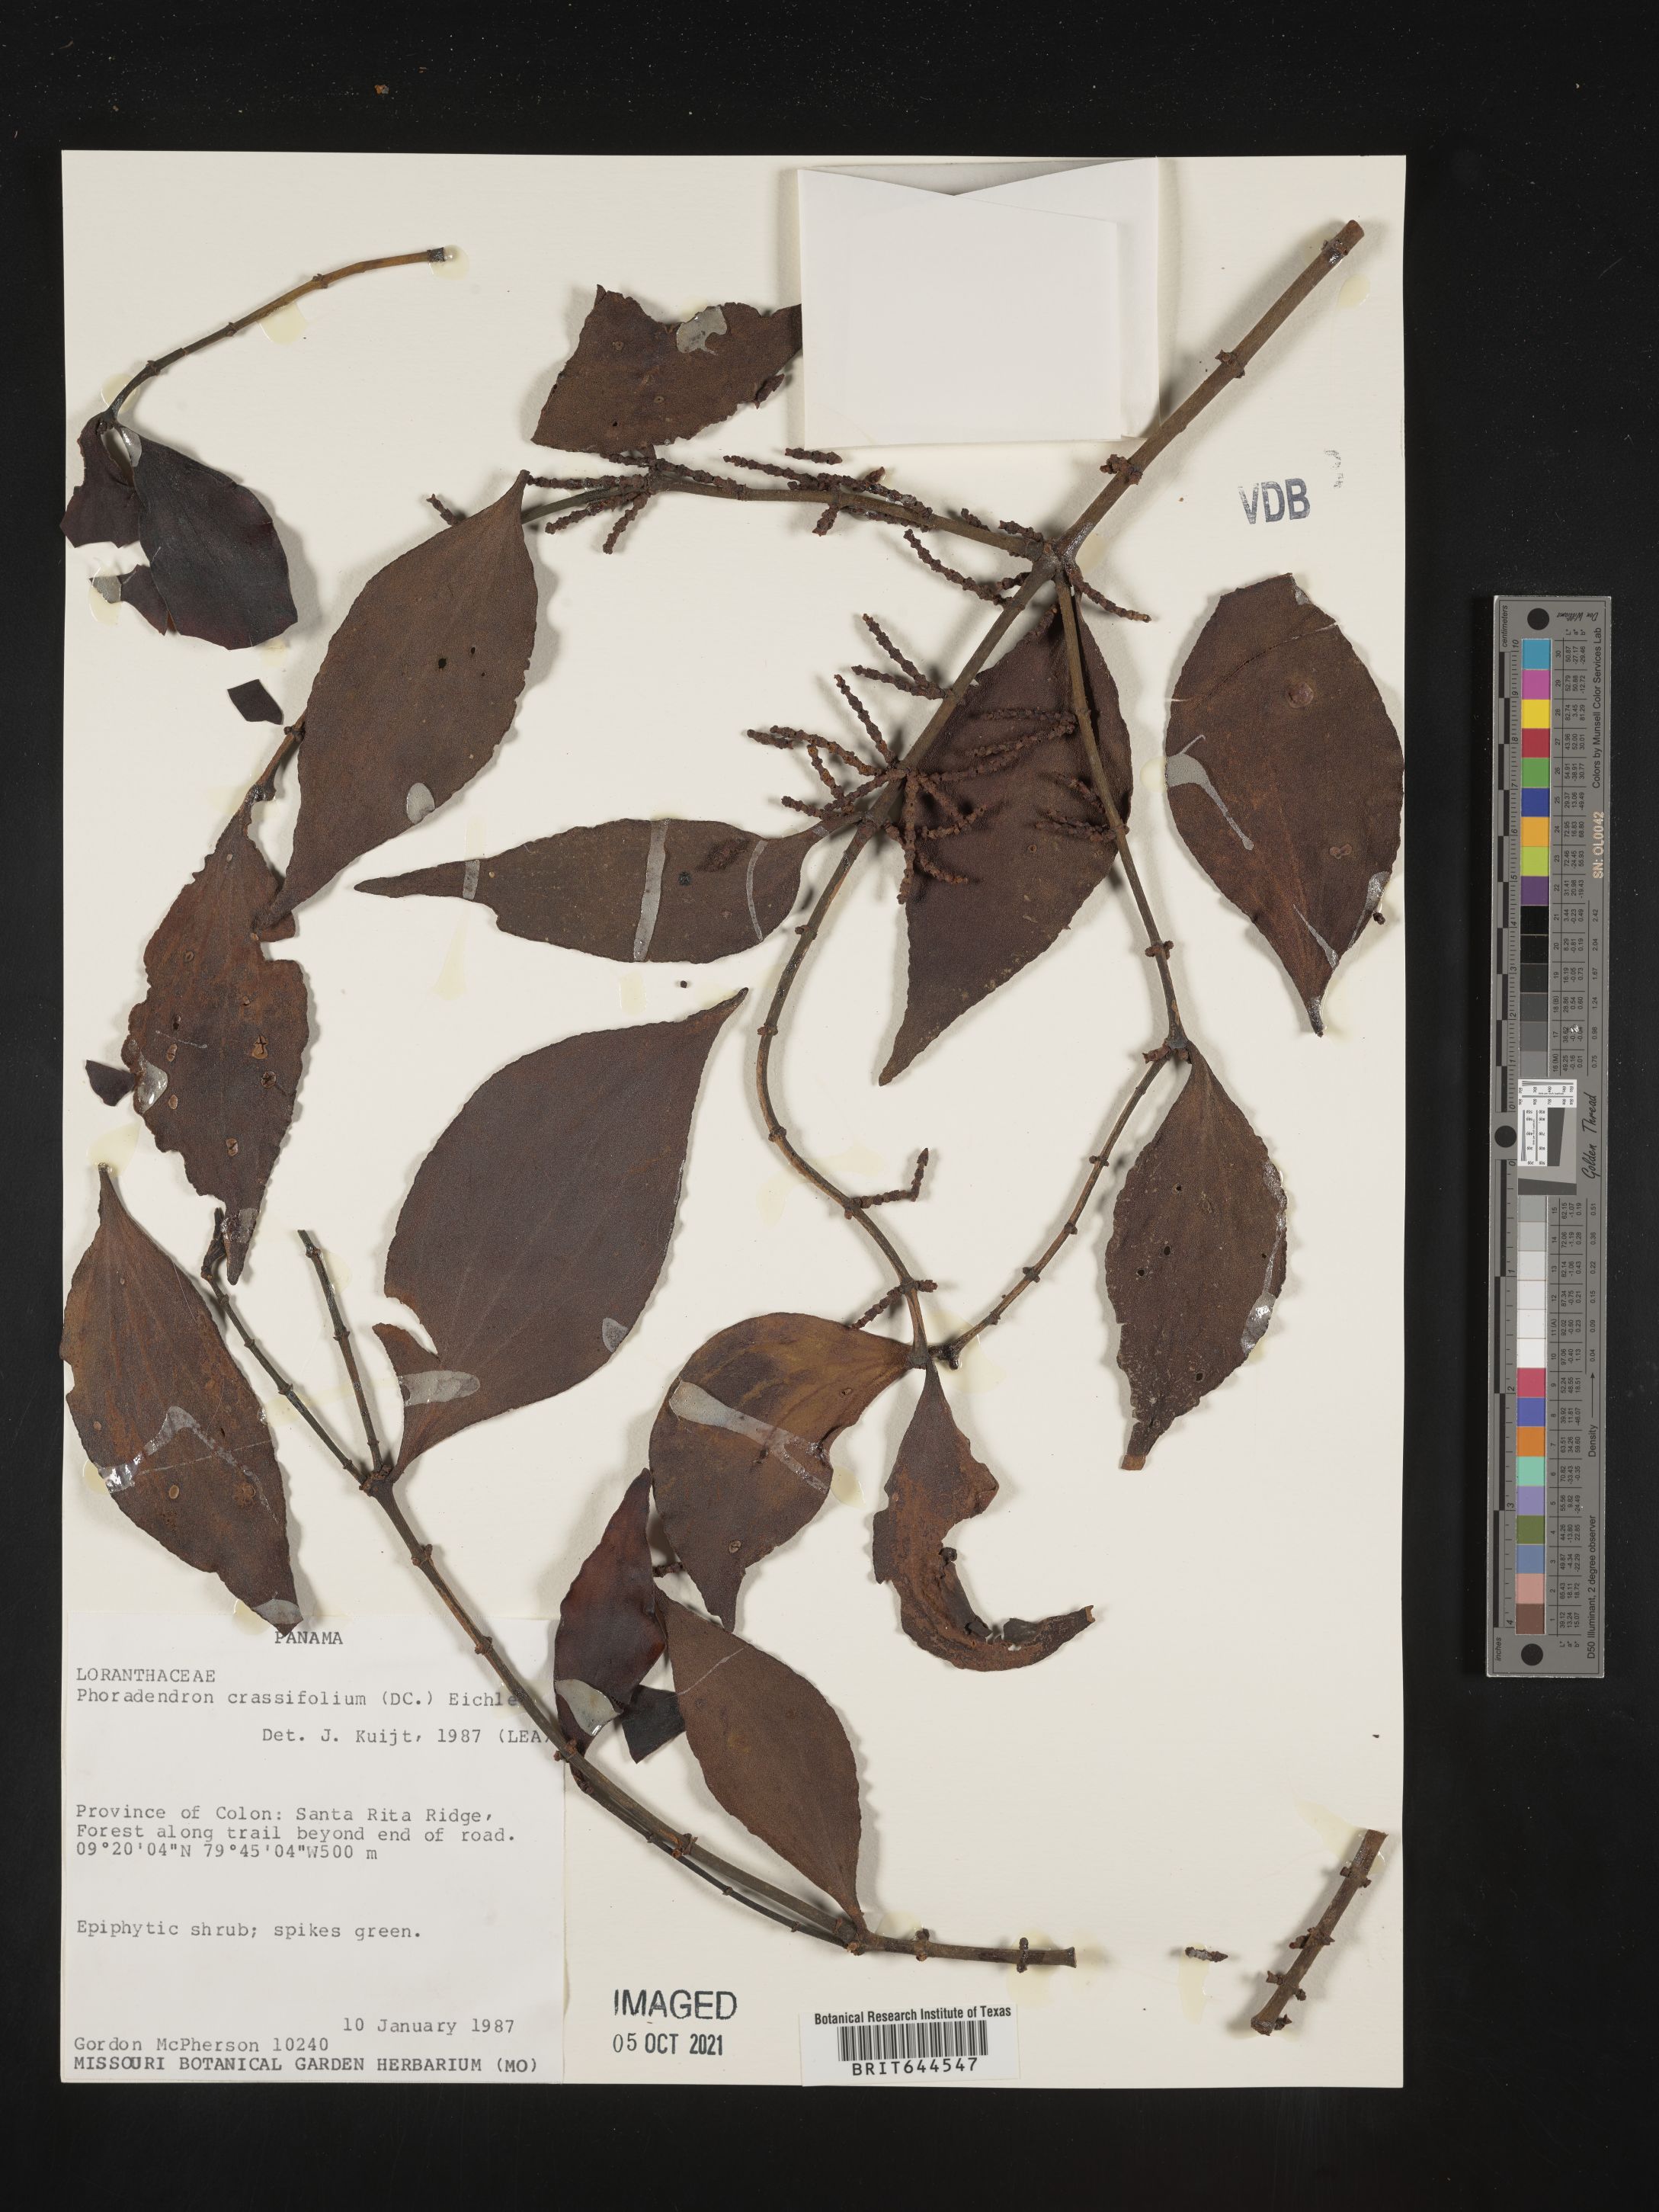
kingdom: Plantae
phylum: Tracheophyta
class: Magnoliopsida
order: Santalales
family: Viscaceae
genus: Phoradendron
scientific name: Phoradendron
